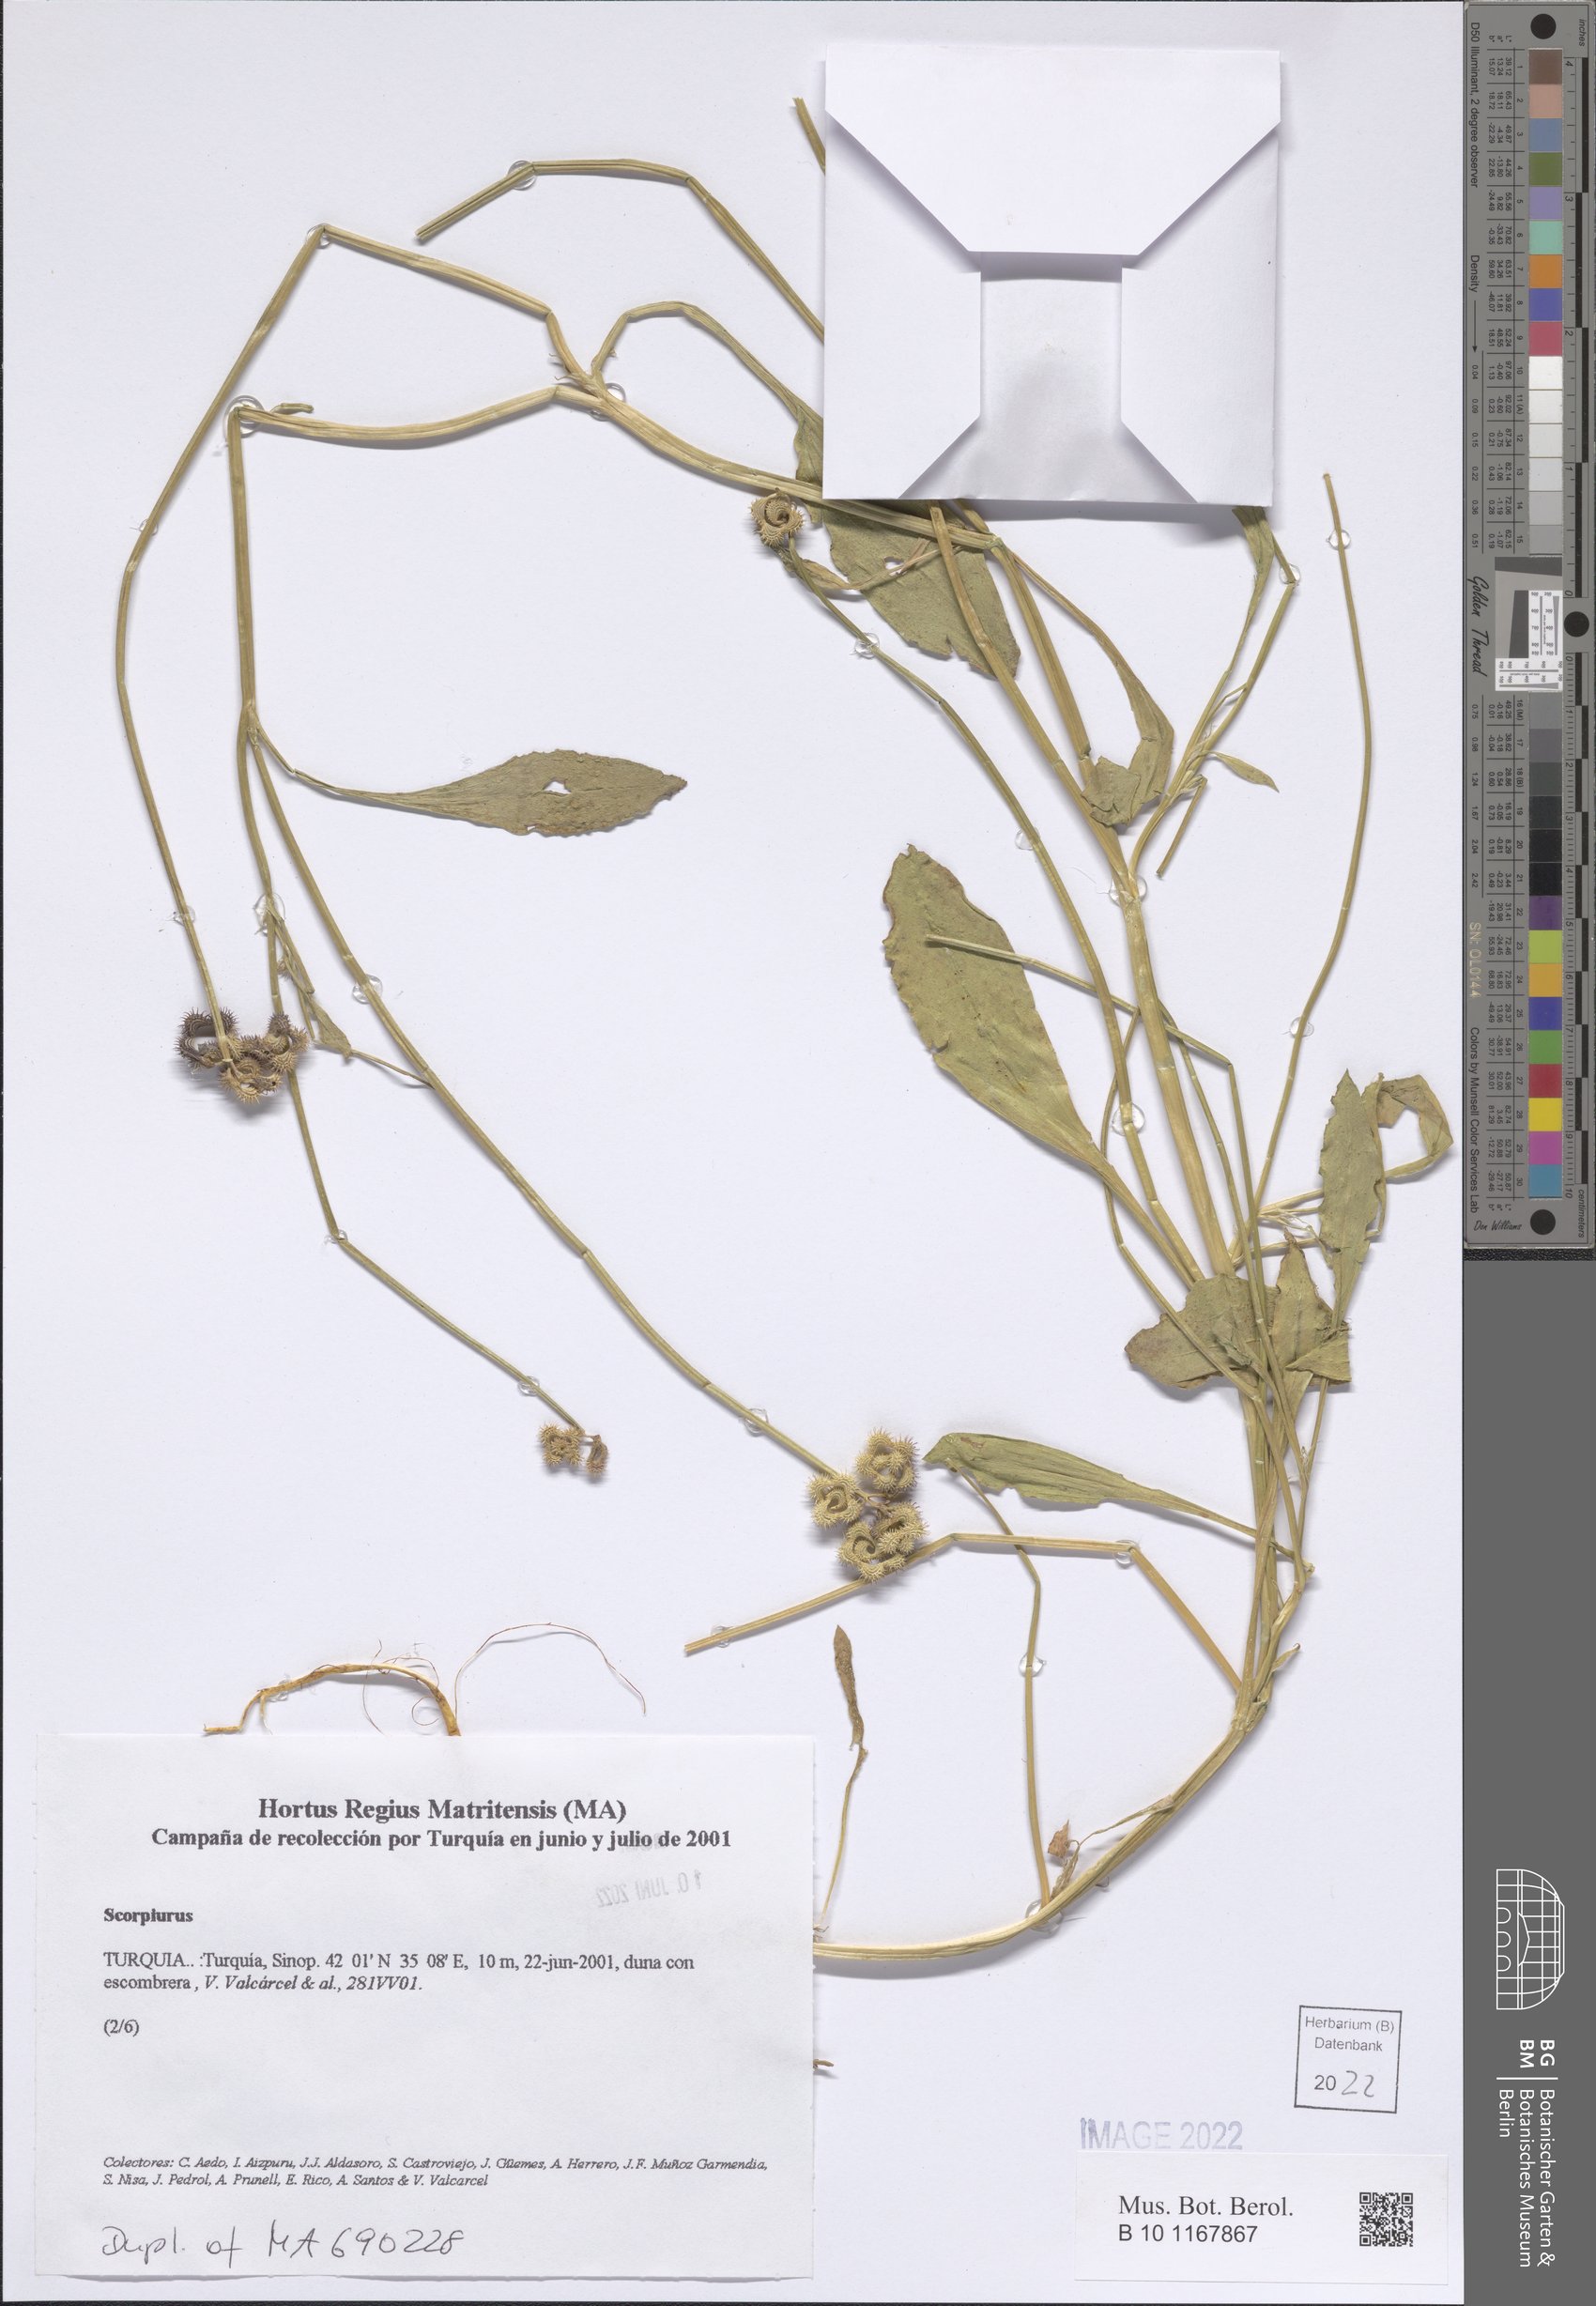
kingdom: Plantae
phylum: Tracheophyta
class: Magnoliopsida
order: Fabales
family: Fabaceae
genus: Scorpiurus
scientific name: Scorpiurus
